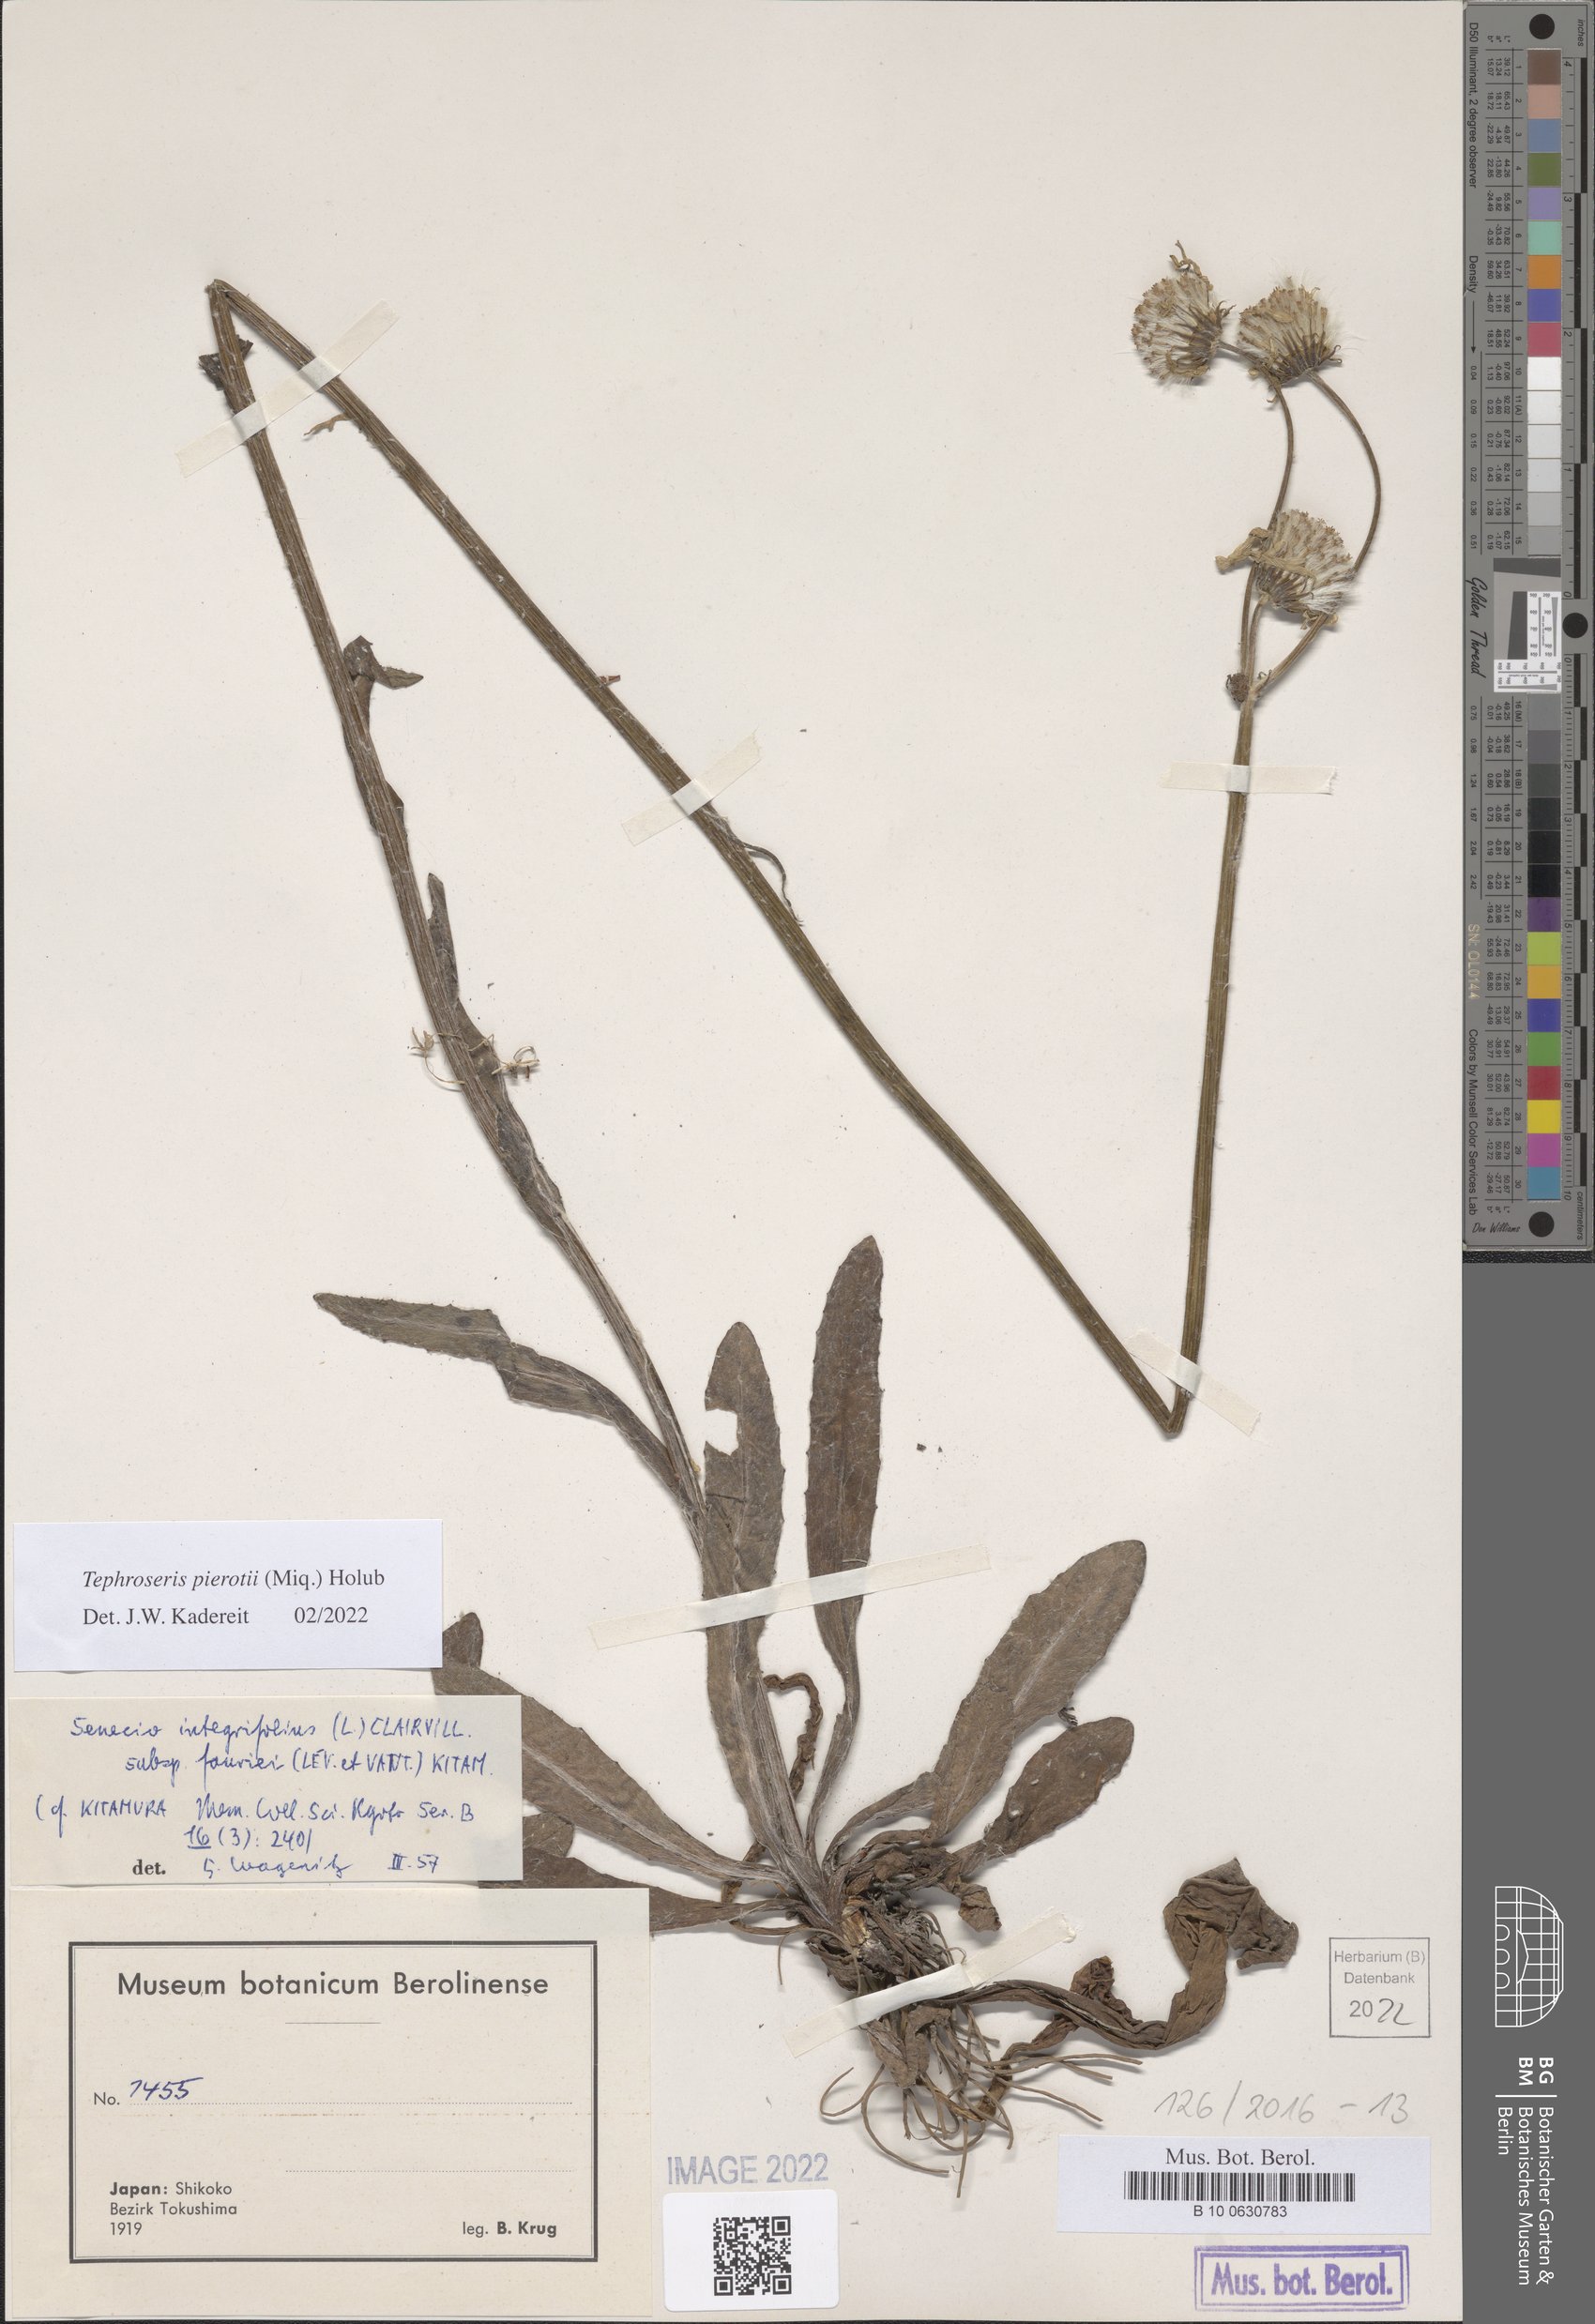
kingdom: Plantae
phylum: Tracheophyta
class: Magnoliopsida
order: Asterales
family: Asteraceae
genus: Tephroseris
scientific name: Tephroseris pierotii
